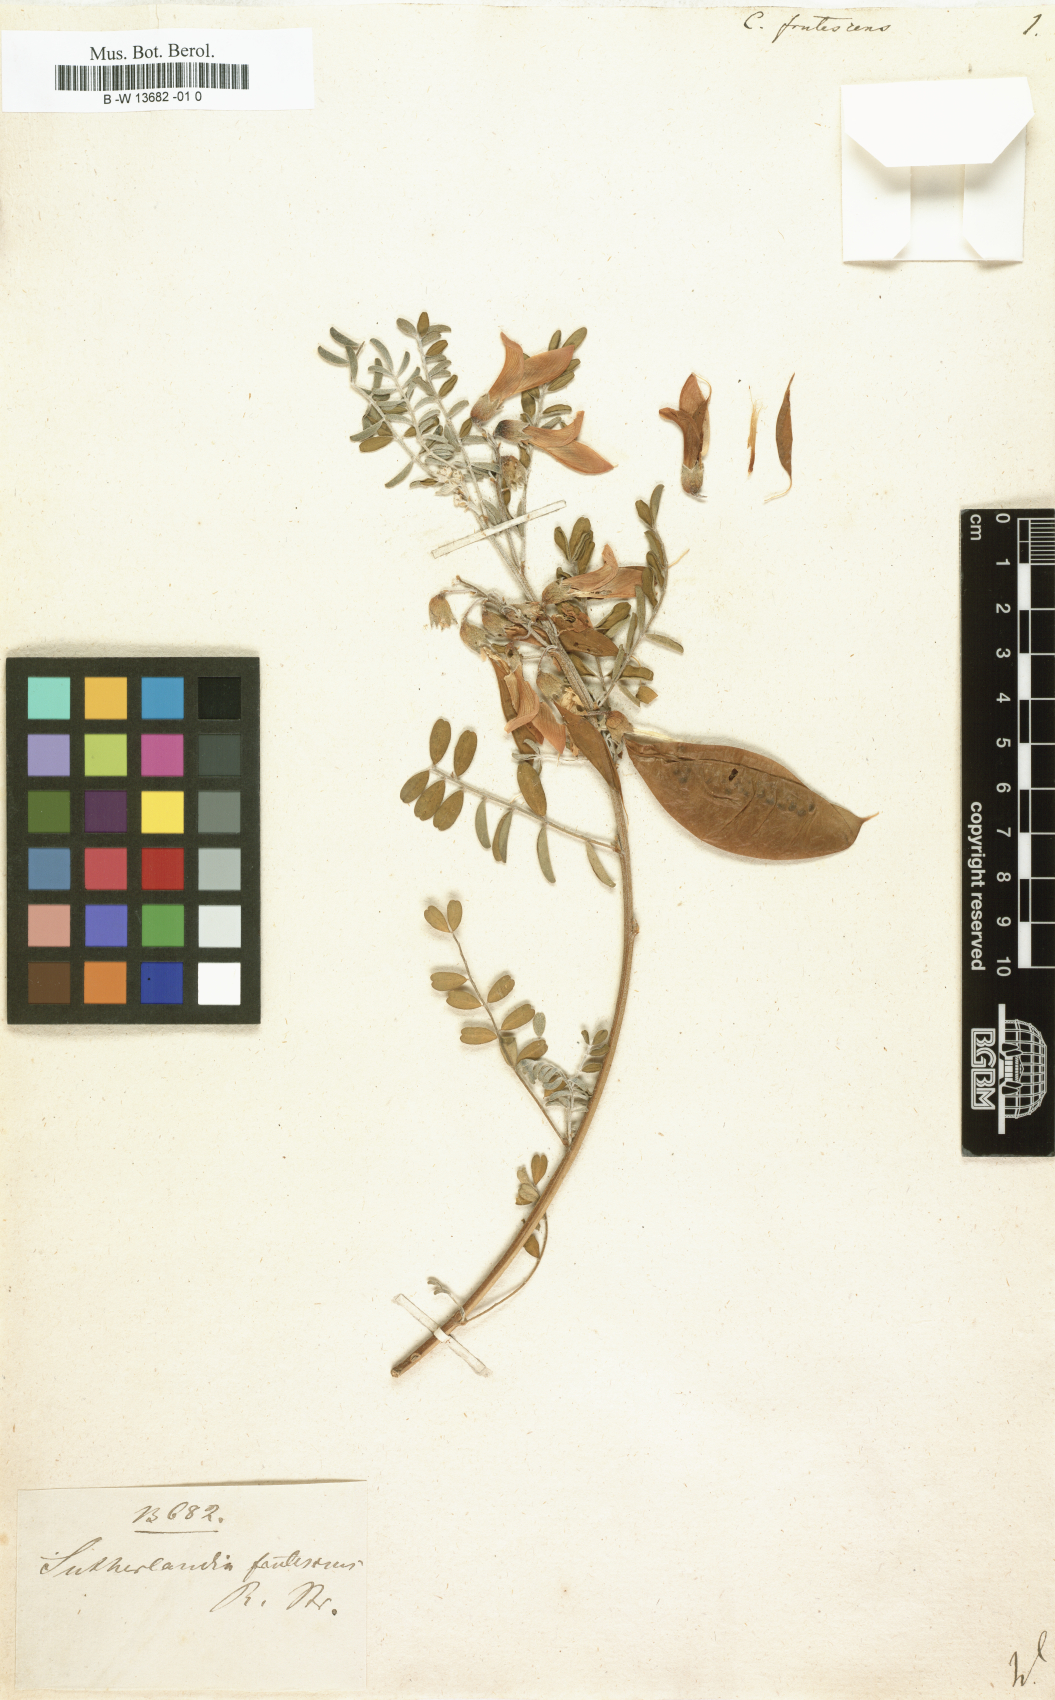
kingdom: Plantae
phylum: Tracheophyta
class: Magnoliopsida
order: Fabales
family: Fabaceae
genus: Lessertia
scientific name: Lessertia frutescens
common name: Balloon-pea
